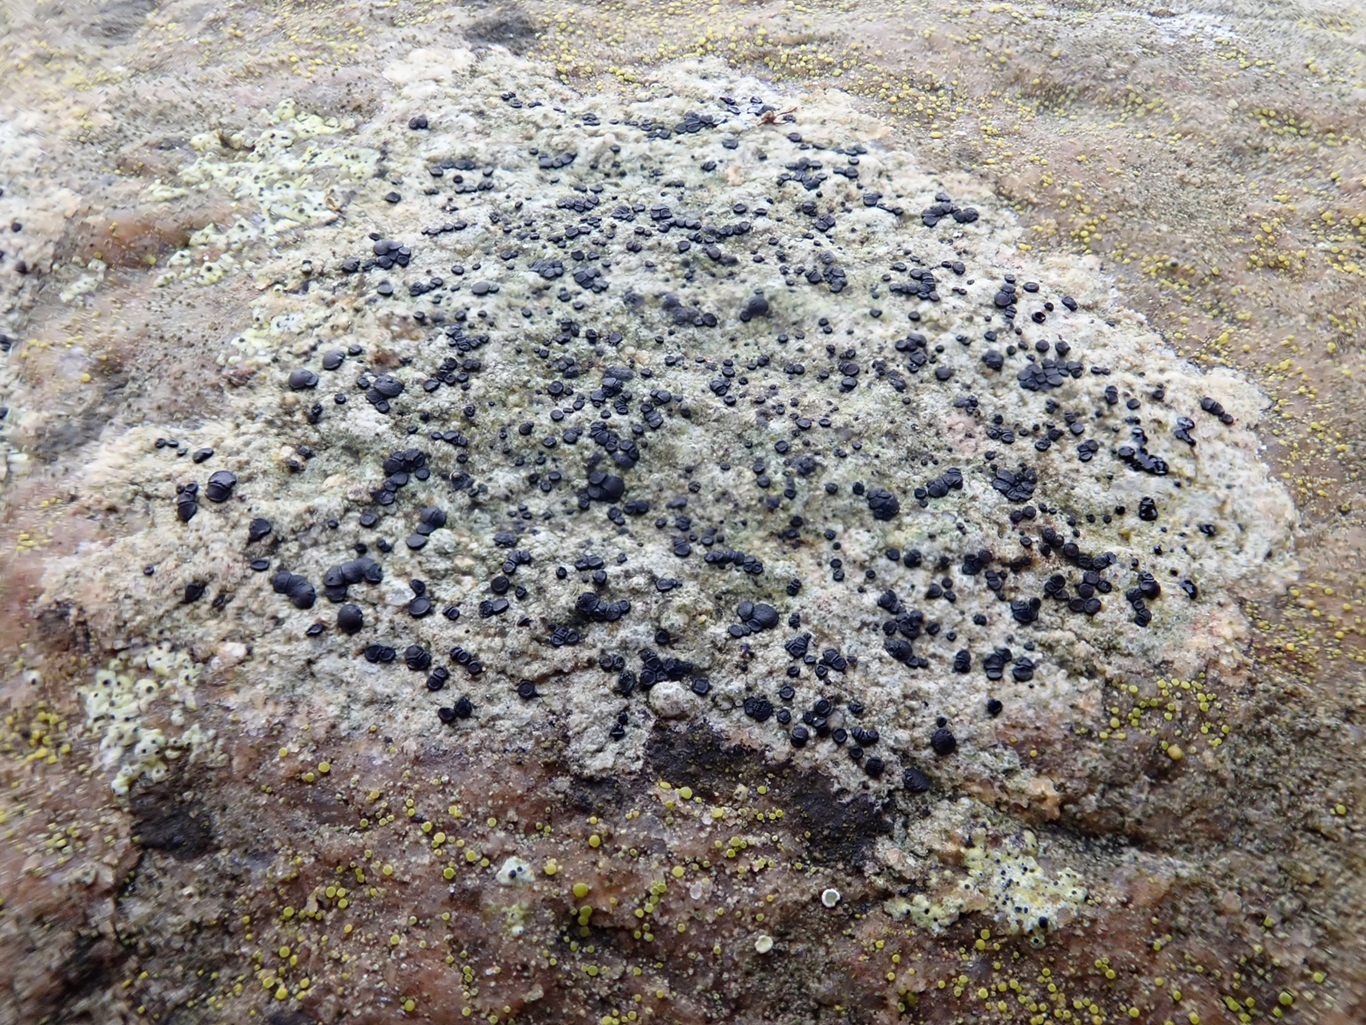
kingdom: Fungi
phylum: Ascomycota
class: Lecanoromycetes
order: Lecanorales
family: Parmeliaceae
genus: Lichen
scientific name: Lichen
